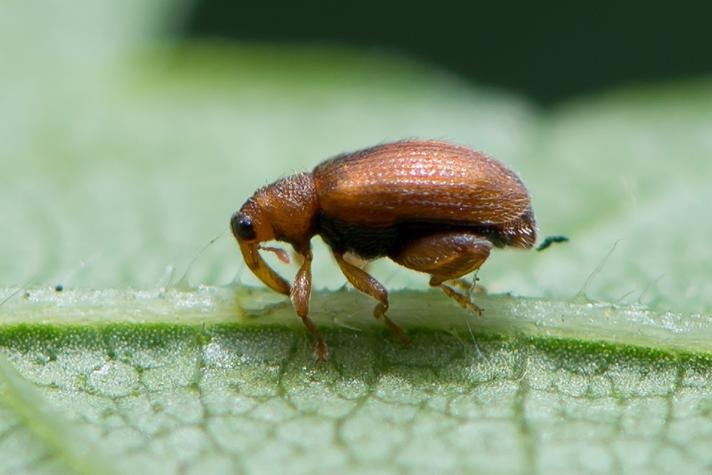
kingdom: Animalia
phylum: Arthropoda
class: Insecta
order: Coleoptera
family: Curculionidae
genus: Orchestes
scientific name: Orchestes betuleti
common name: Elmeloppe
